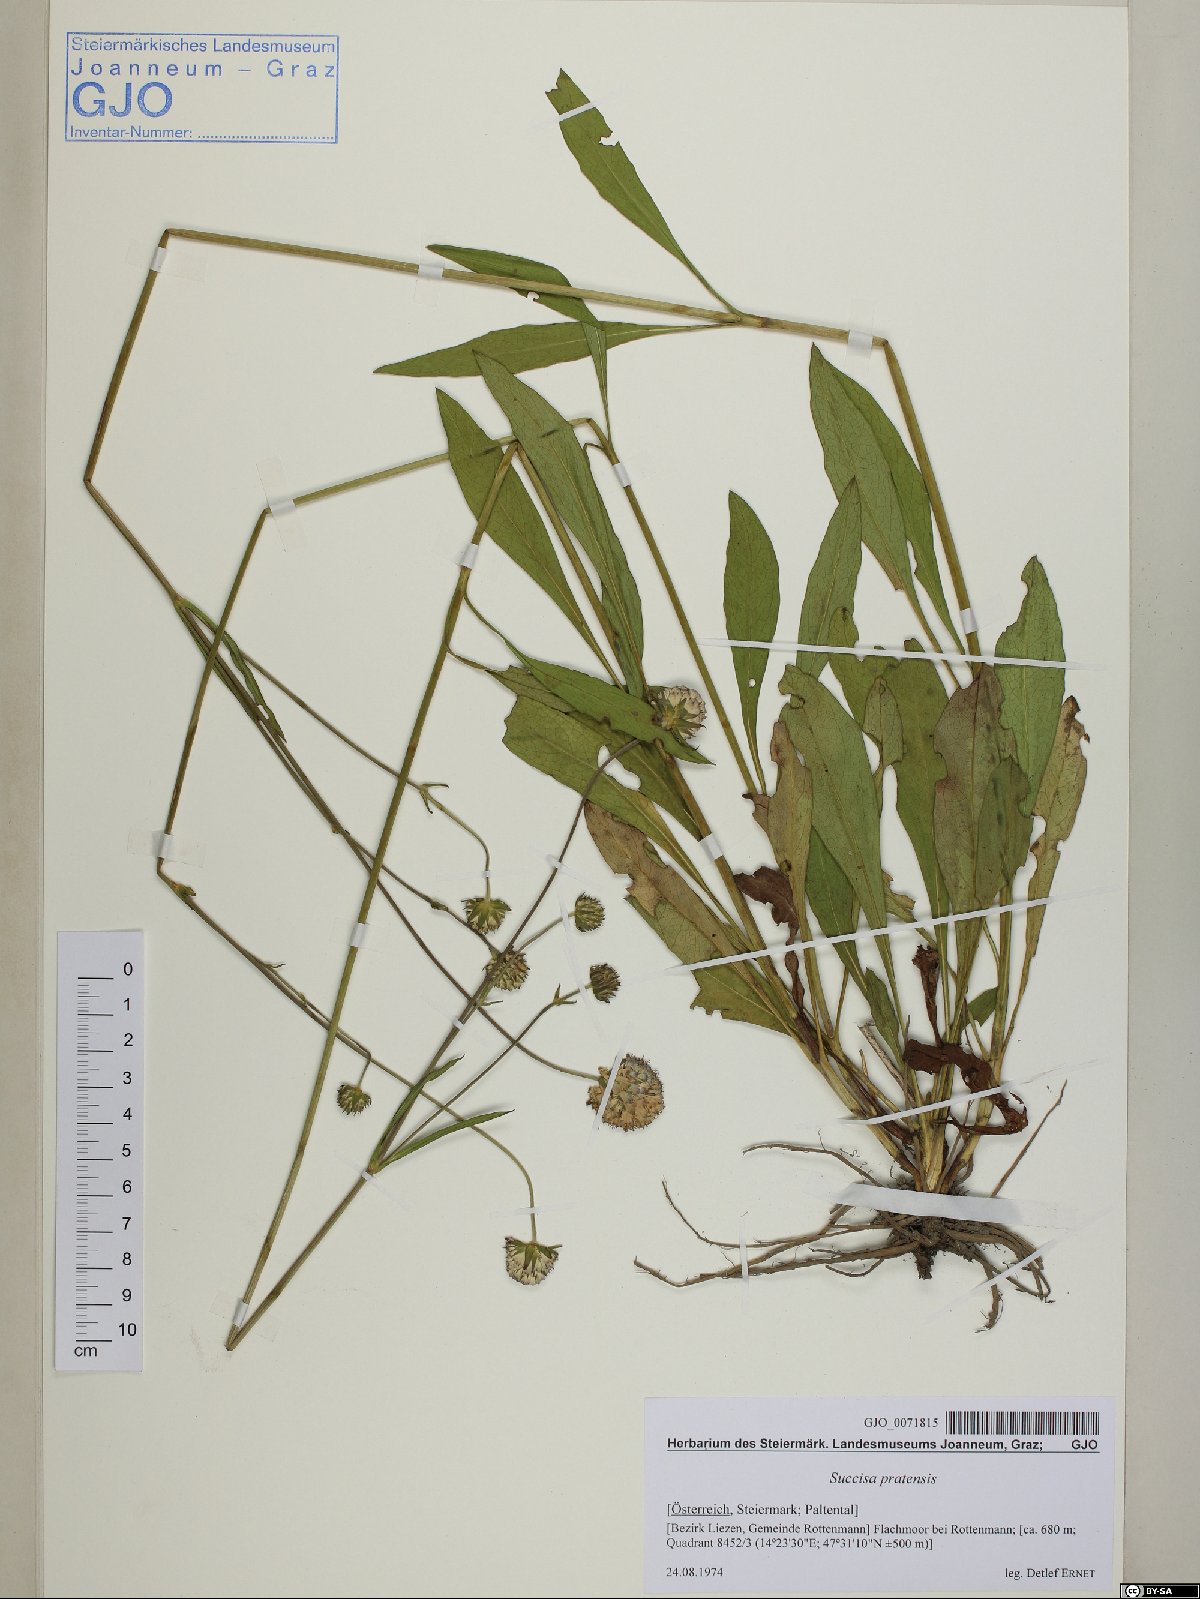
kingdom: Plantae
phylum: Tracheophyta
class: Magnoliopsida
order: Dipsacales
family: Caprifoliaceae
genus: Succisa
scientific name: Succisa pratensis
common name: Devil's-bit
